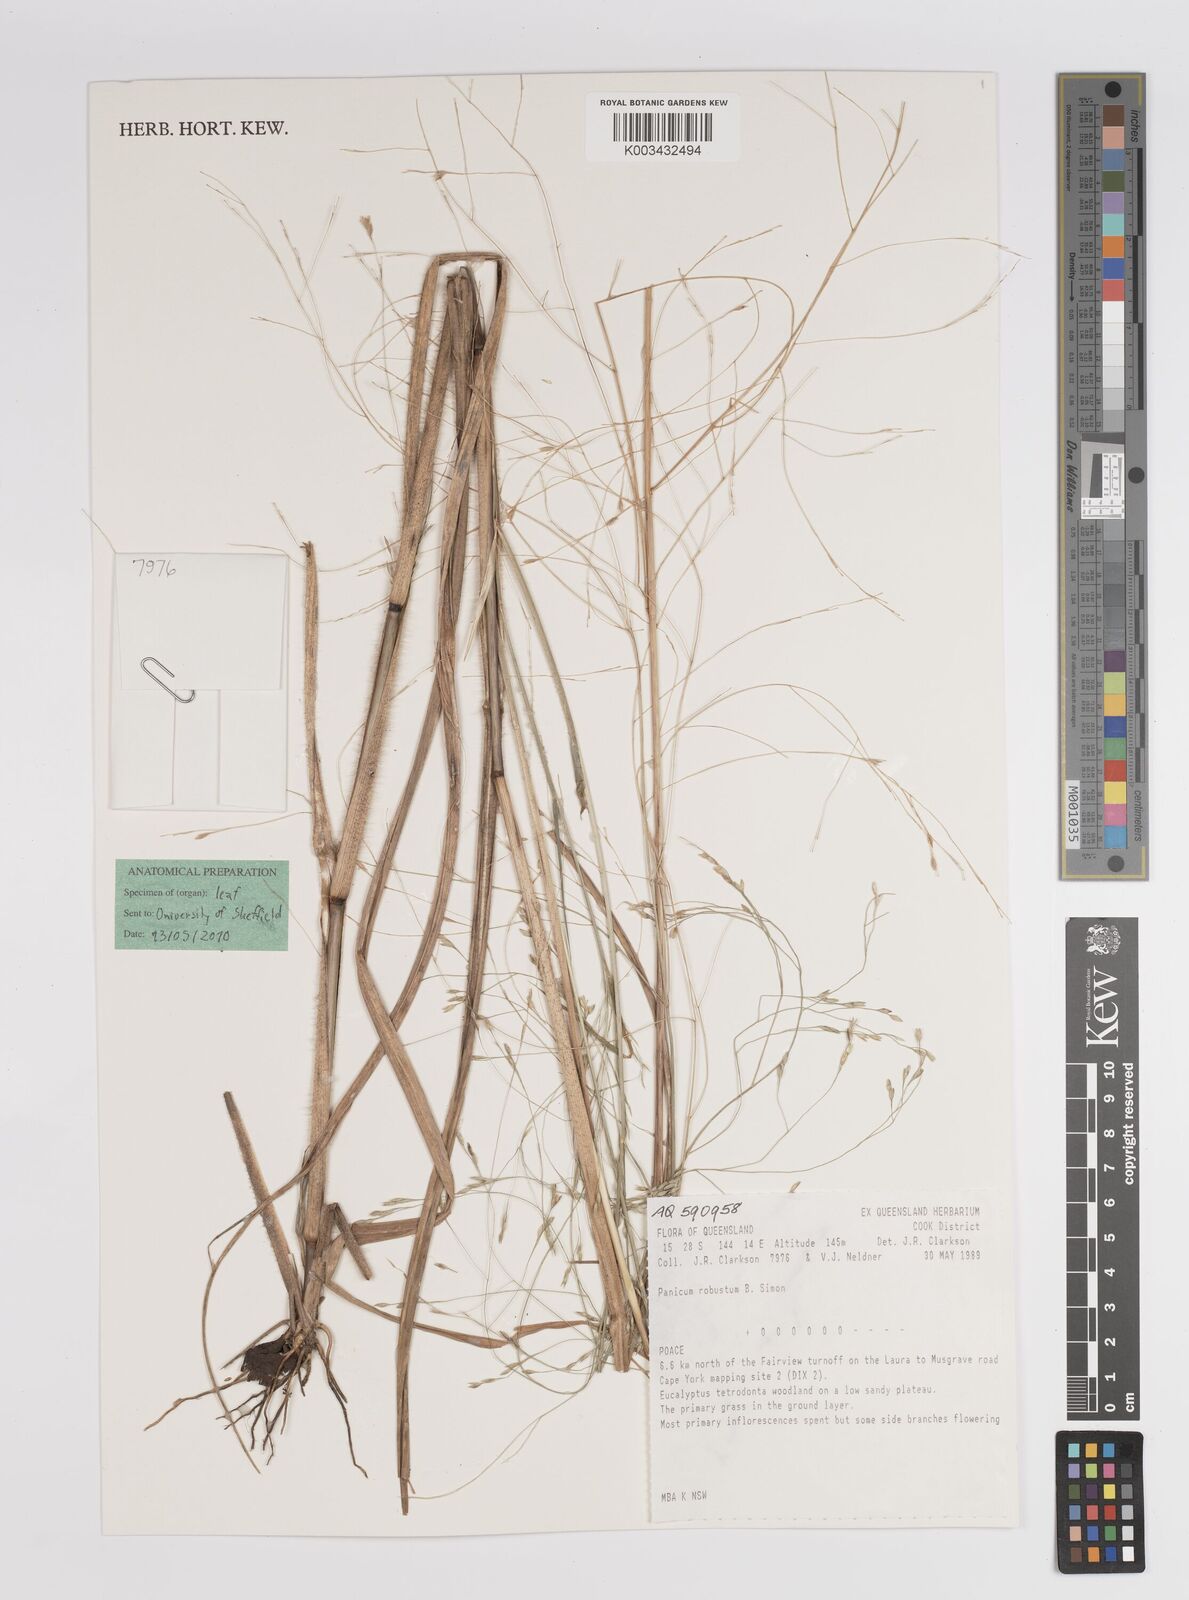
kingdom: Plantae
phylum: Tracheophyta
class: Liliopsida
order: Poales
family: Poaceae
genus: Panicum
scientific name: Panicum trachyrhachis
